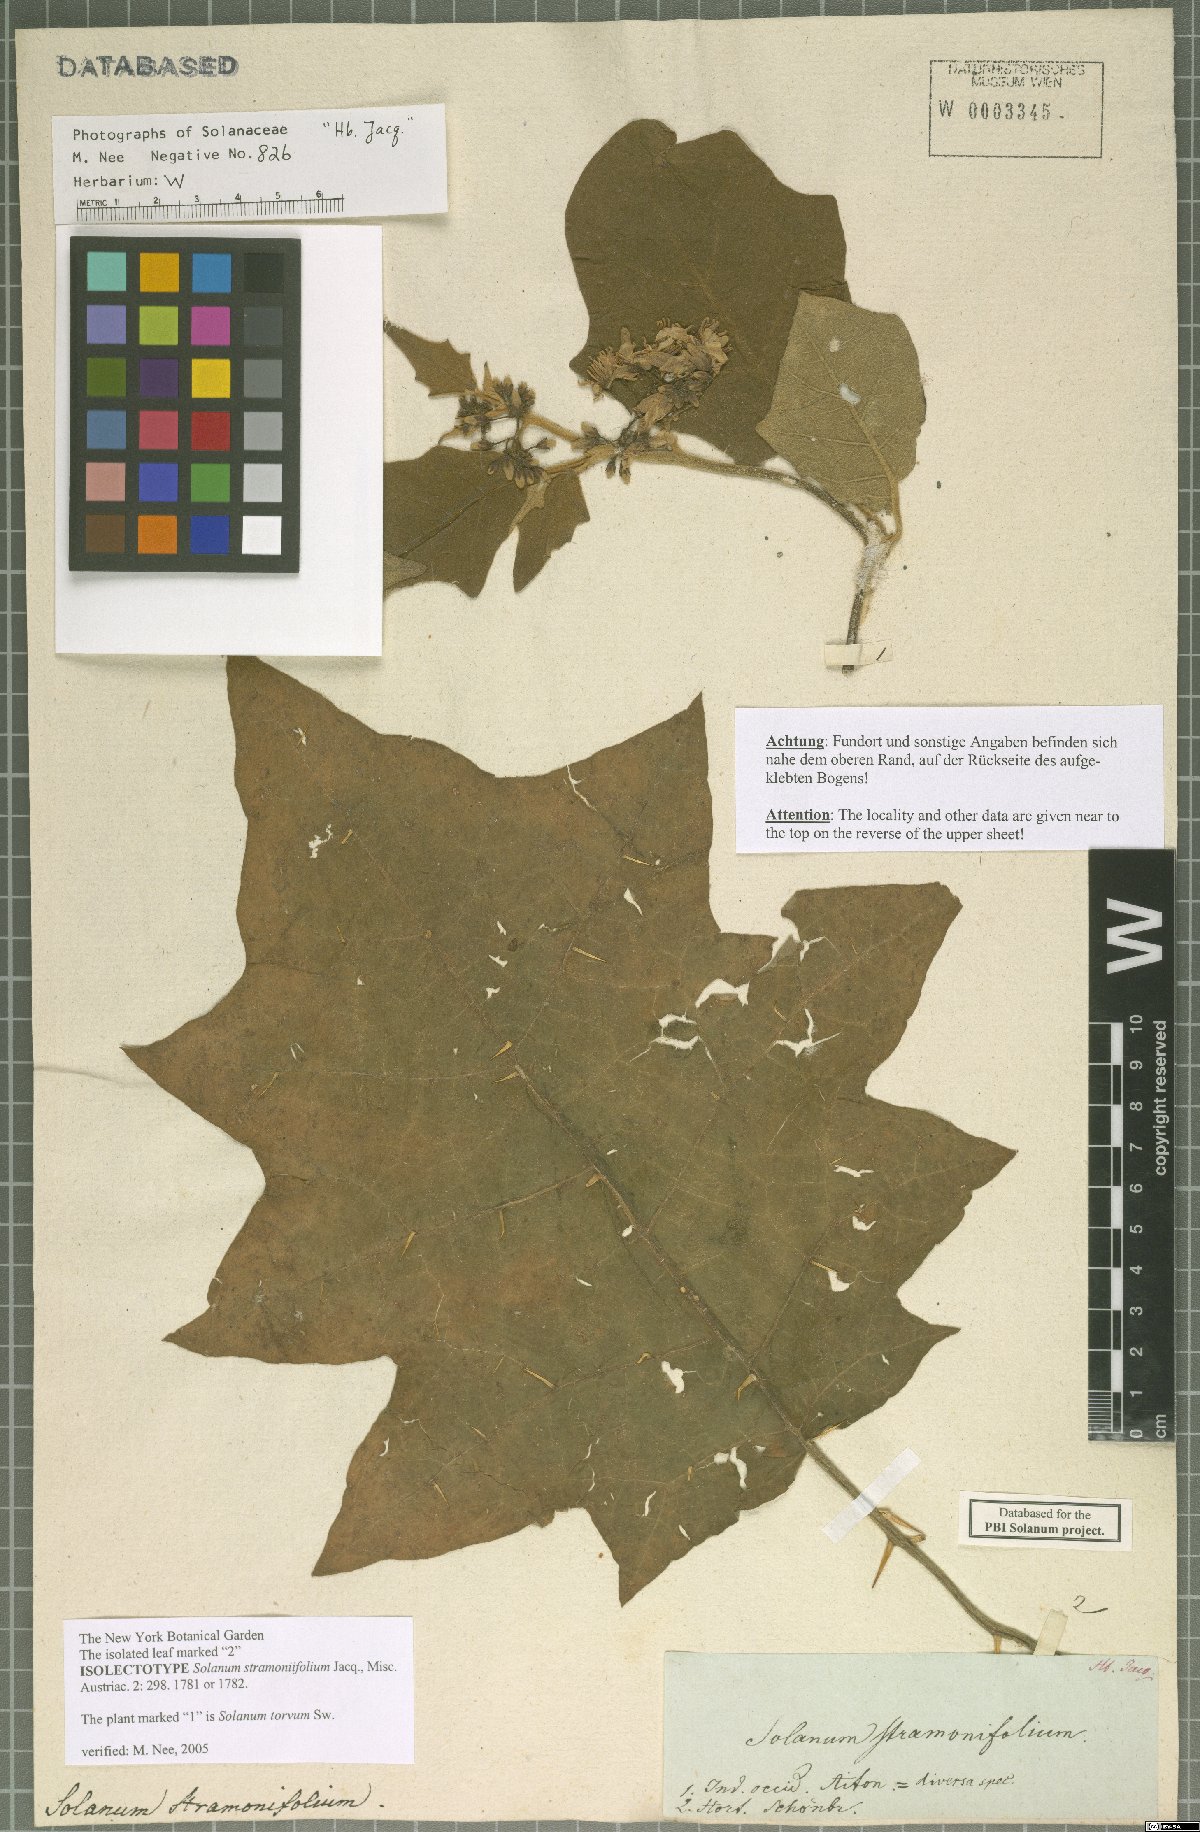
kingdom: Plantae
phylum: Tracheophyta
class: Magnoliopsida
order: Solanales
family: Solanaceae
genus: Solanum
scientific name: Solanum stramonifolium
